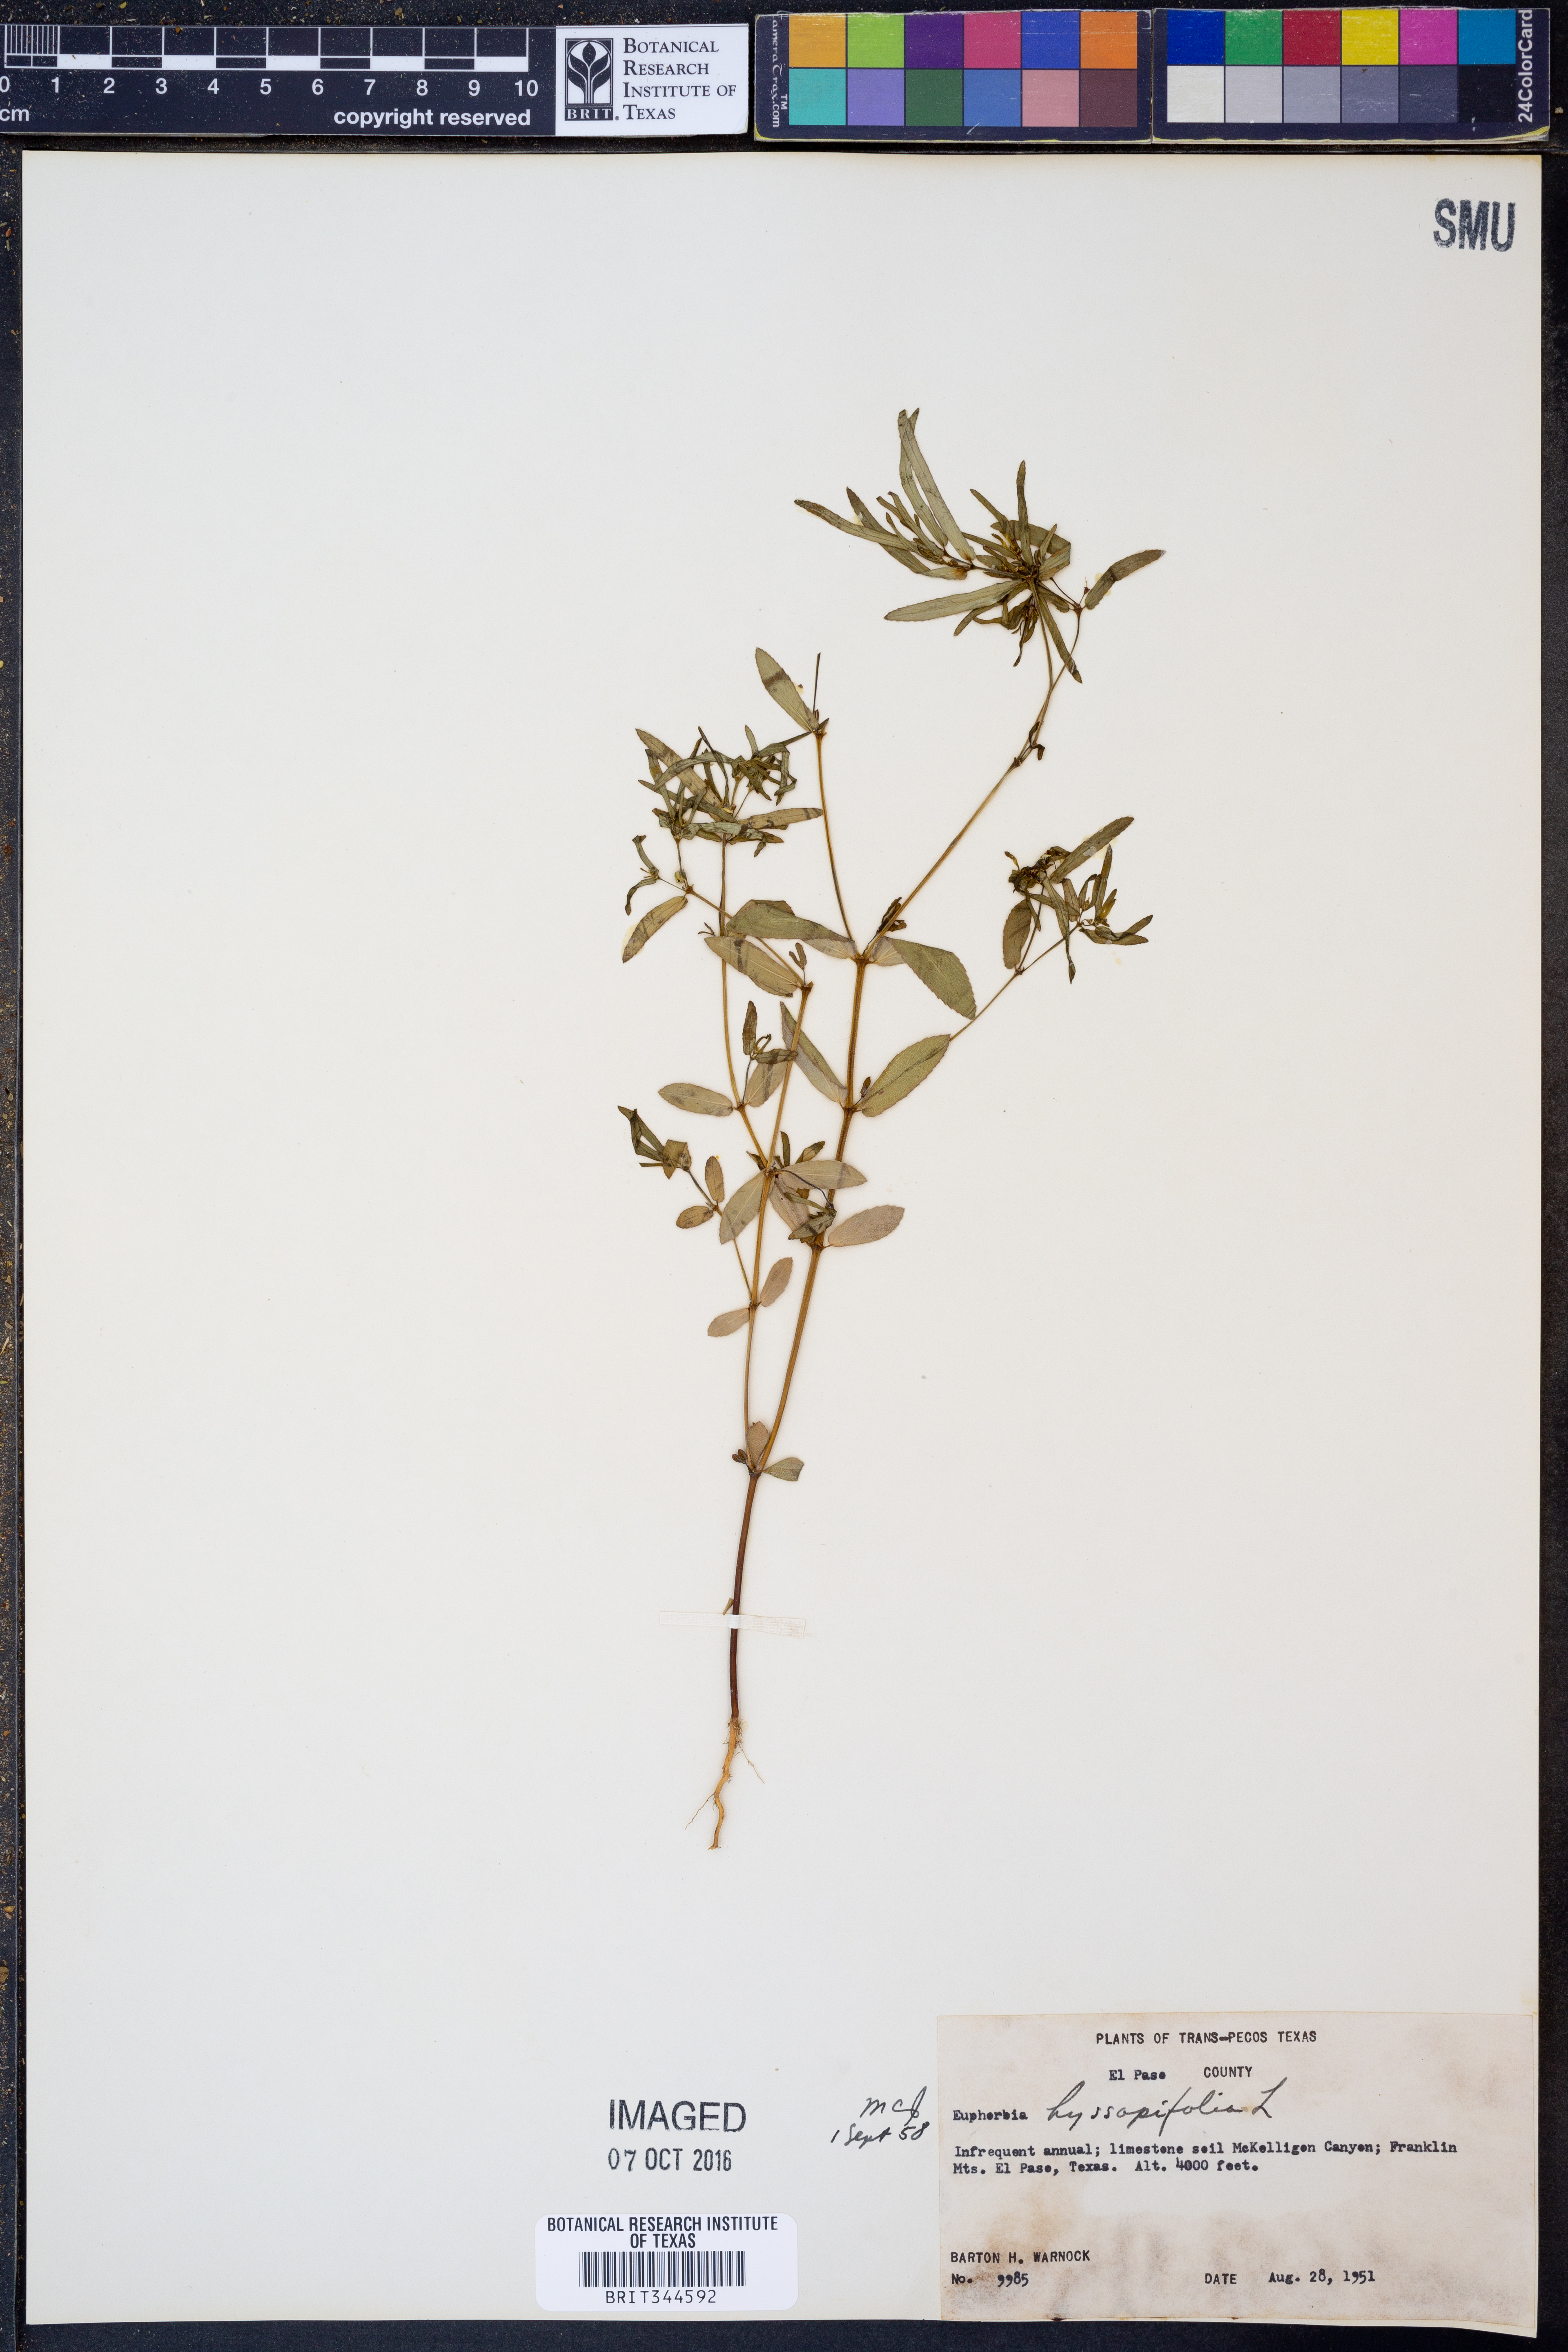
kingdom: Plantae
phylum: Tracheophyta
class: Magnoliopsida
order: Malpighiales
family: Euphorbiaceae
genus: Euphorbia
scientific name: Euphorbia hyssopifolia
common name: Hyssopleaf sandmat
